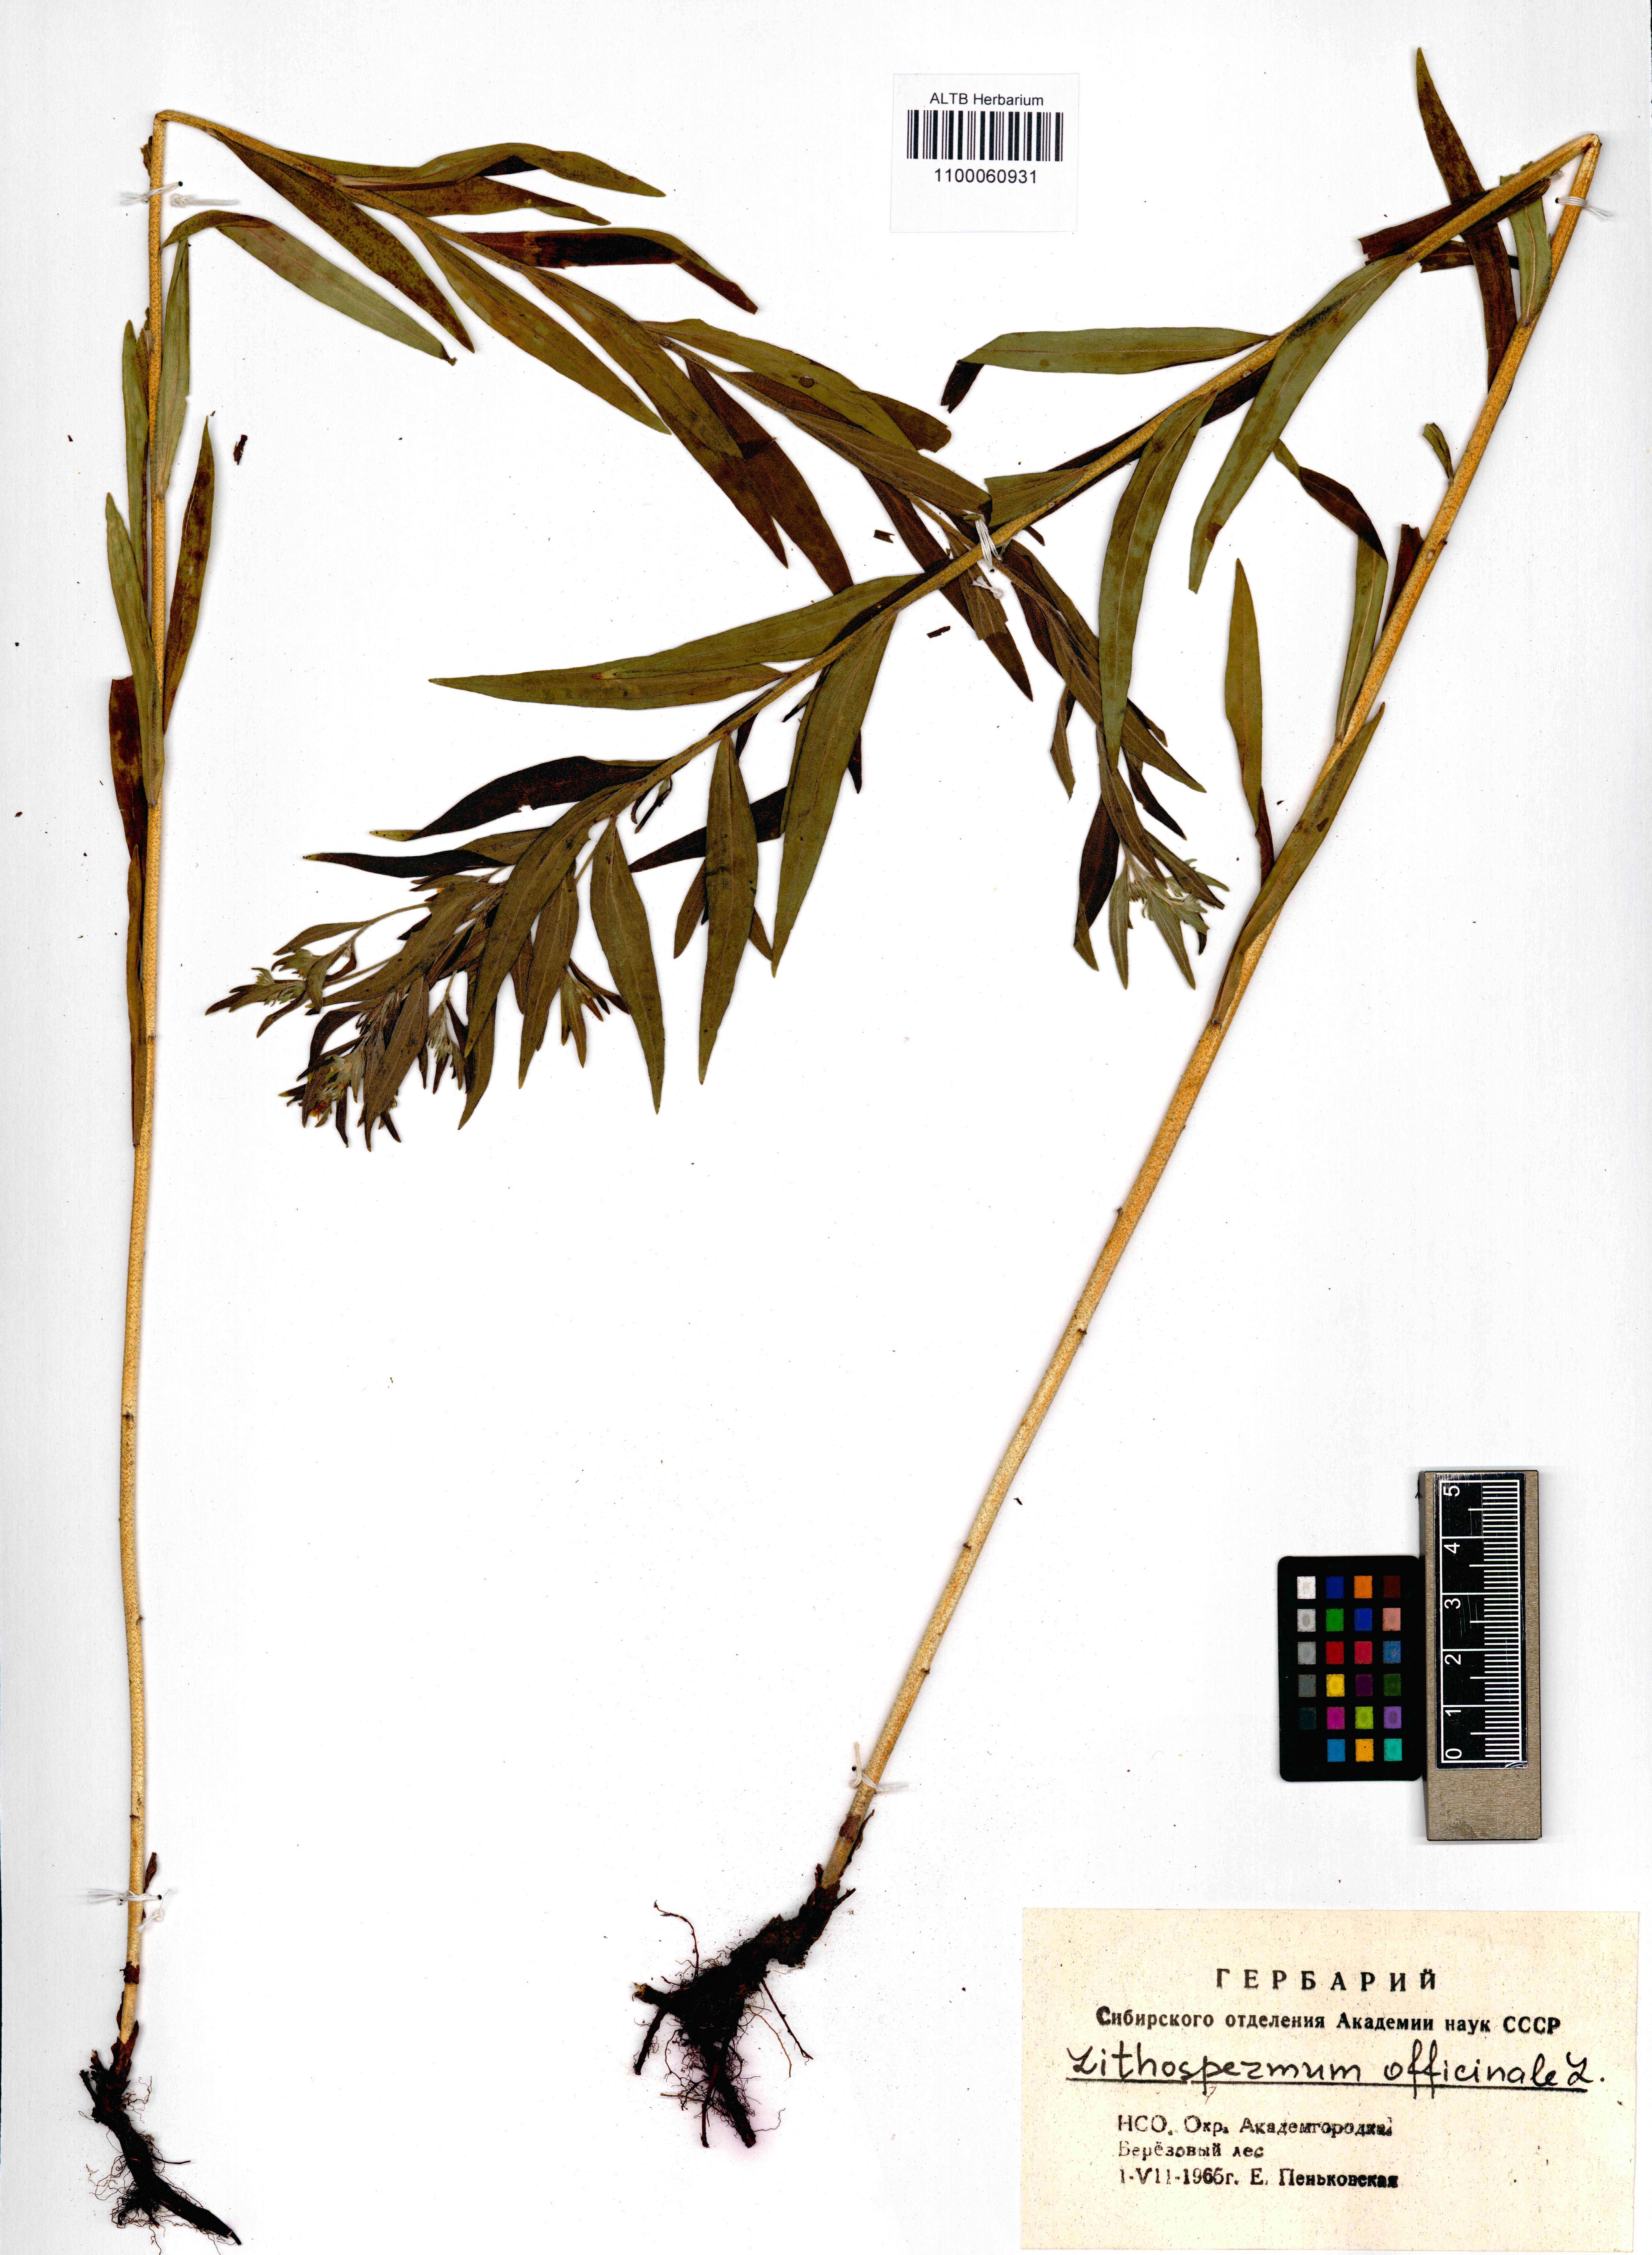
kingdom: Plantae
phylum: Tracheophyta
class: Magnoliopsida
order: Boraginales
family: Boraginaceae
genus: Lithospermum
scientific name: Lithospermum officinale
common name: Common gromwell
